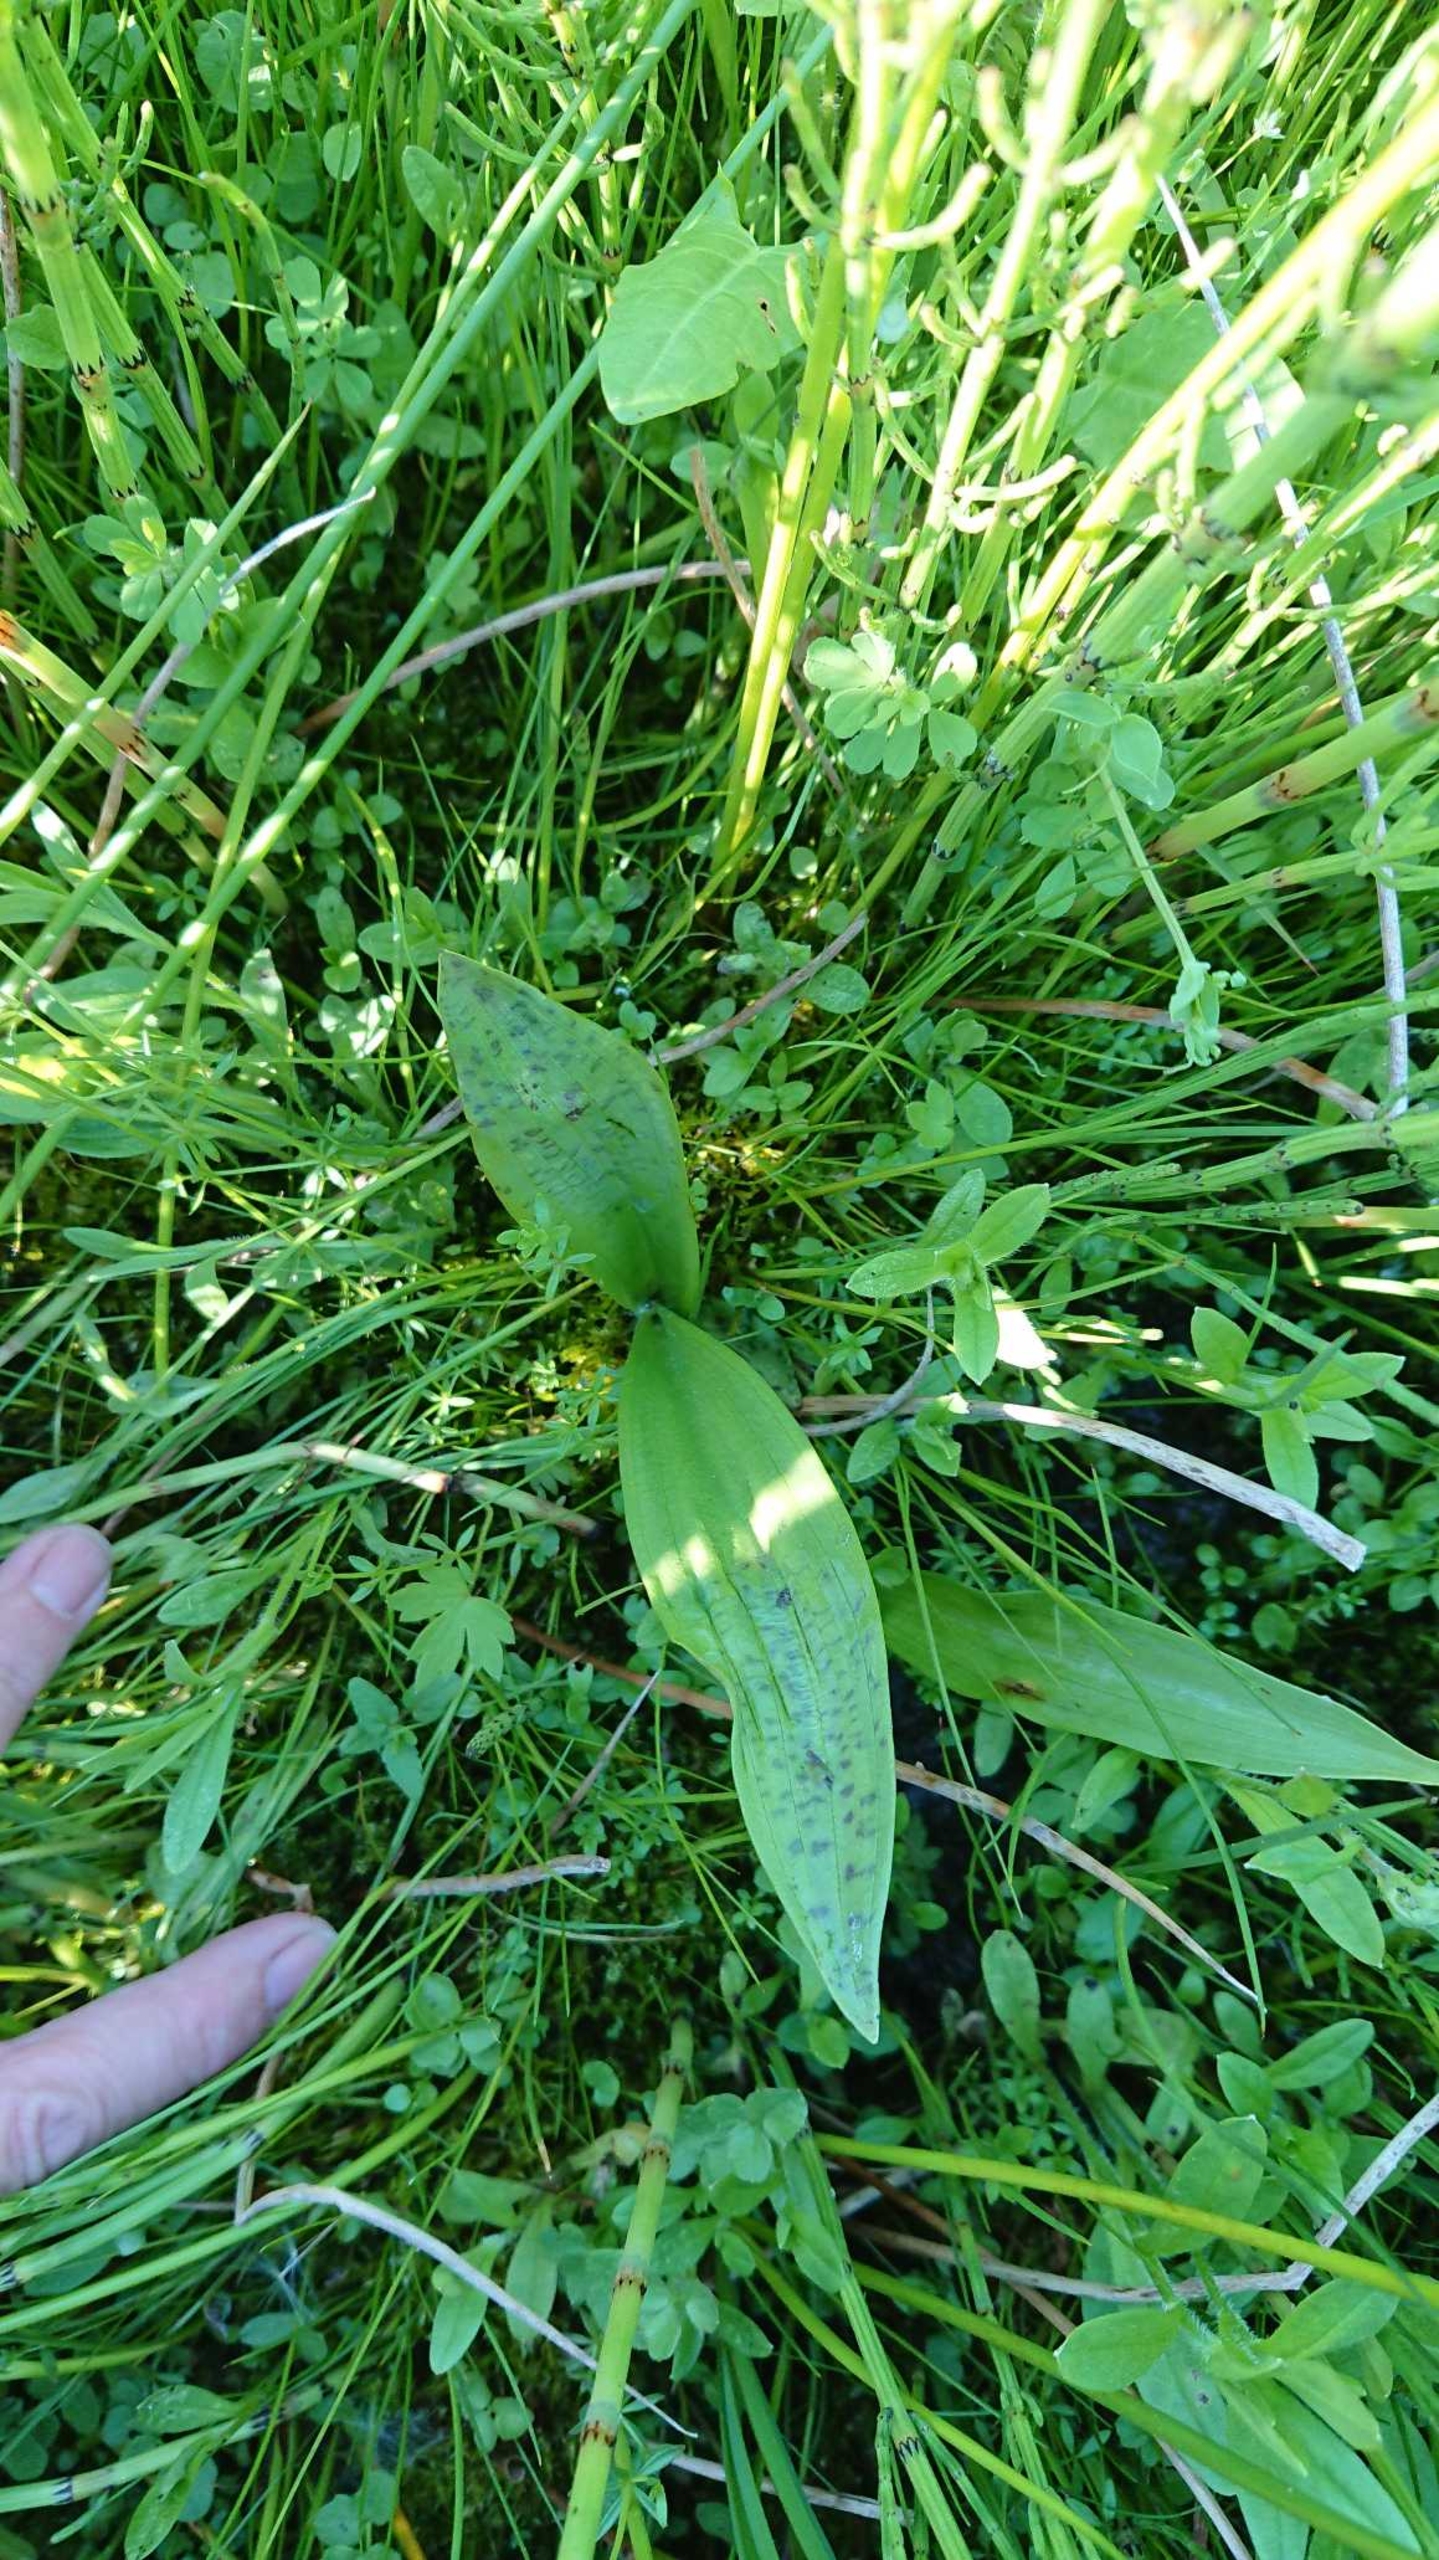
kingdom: Plantae
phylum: Tracheophyta
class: Liliopsida
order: Asparagales
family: Orchidaceae
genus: Dactylorhiza
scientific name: Dactylorhiza majalis
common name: Maj-gøgeurt (underart)
